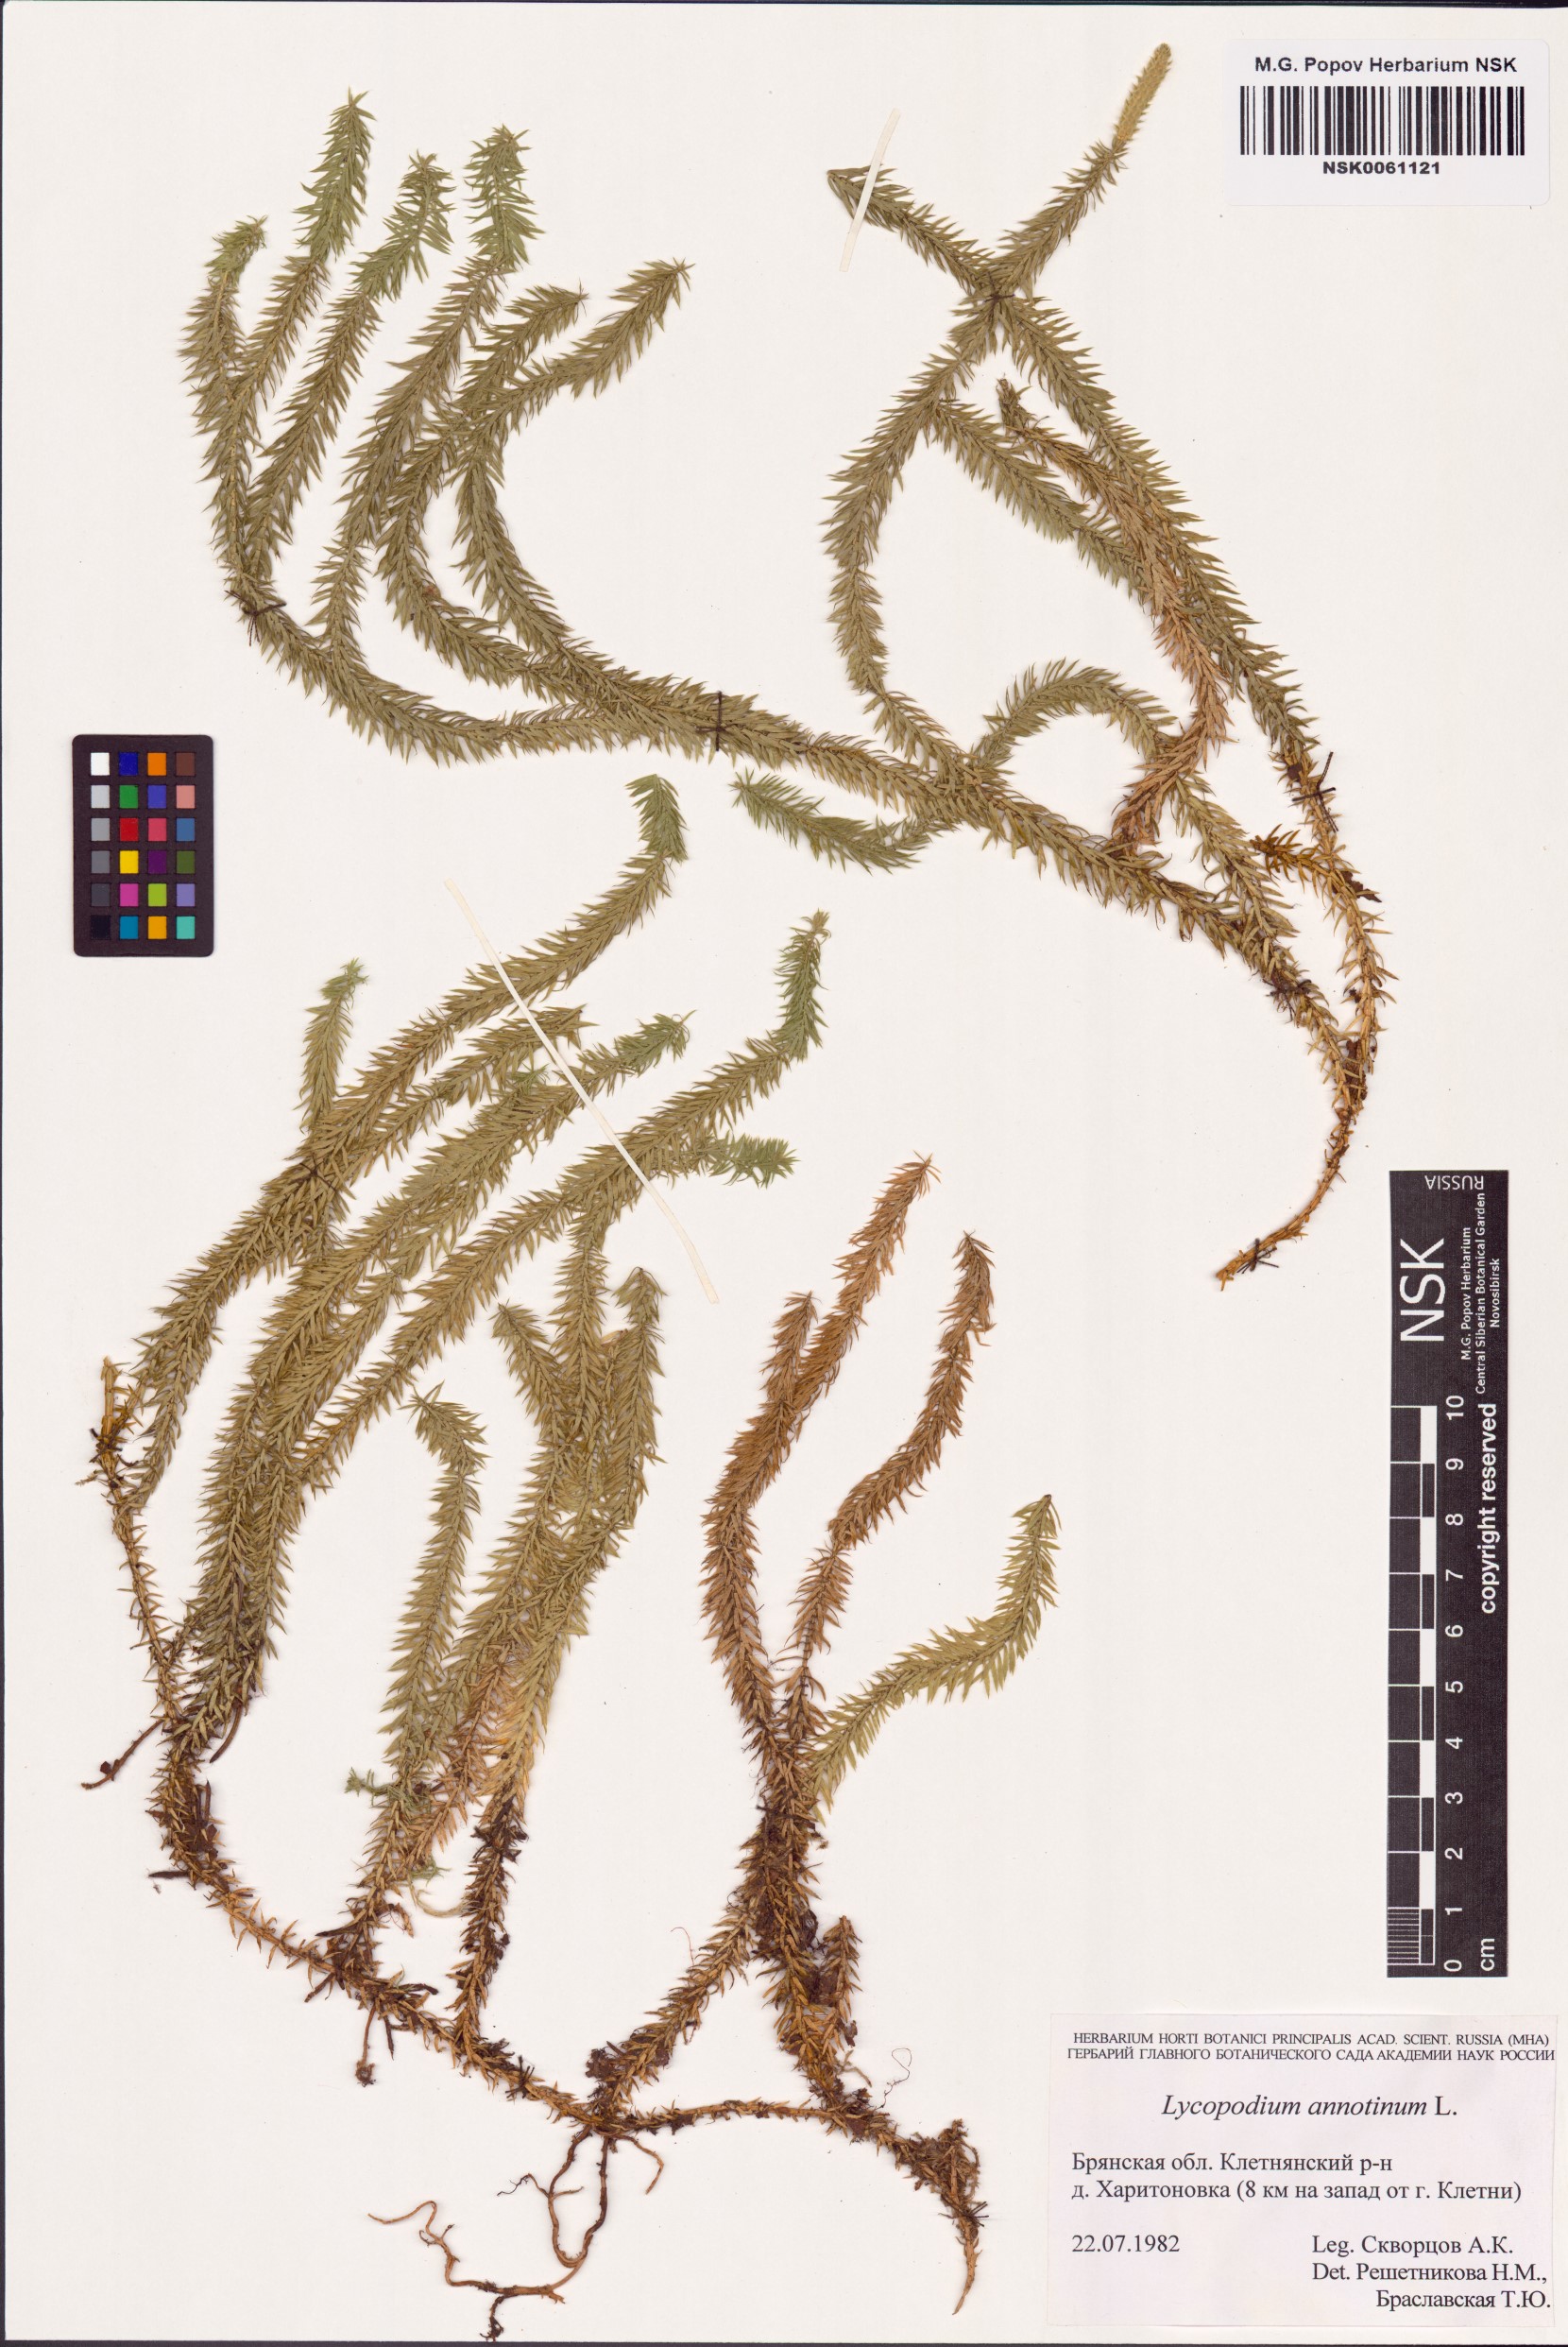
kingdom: Plantae
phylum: Tracheophyta
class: Lycopodiopsida
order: Lycopodiales
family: Lycopodiaceae
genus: Spinulum
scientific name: Spinulum annotinum
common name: Interrupted club-moss
